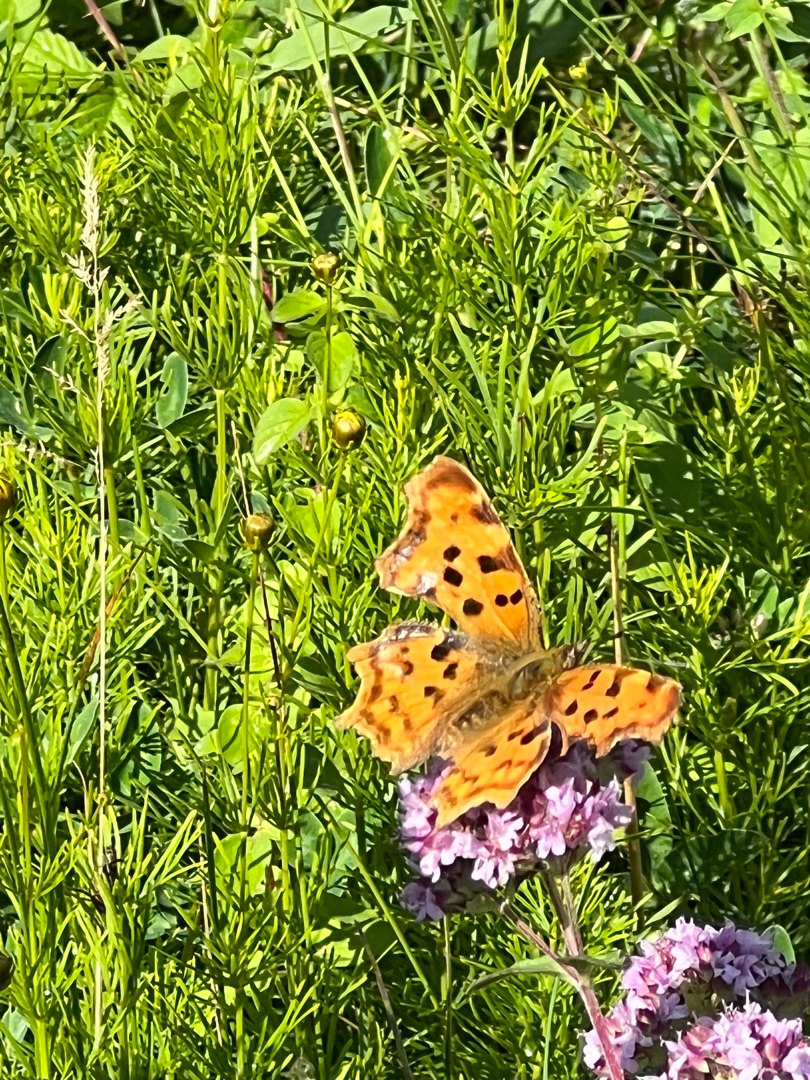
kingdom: Animalia
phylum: Arthropoda
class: Insecta
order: Lepidoptera
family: Nymphalidae
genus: Polygonia
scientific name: Polygonia c-album
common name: Det hvide C
